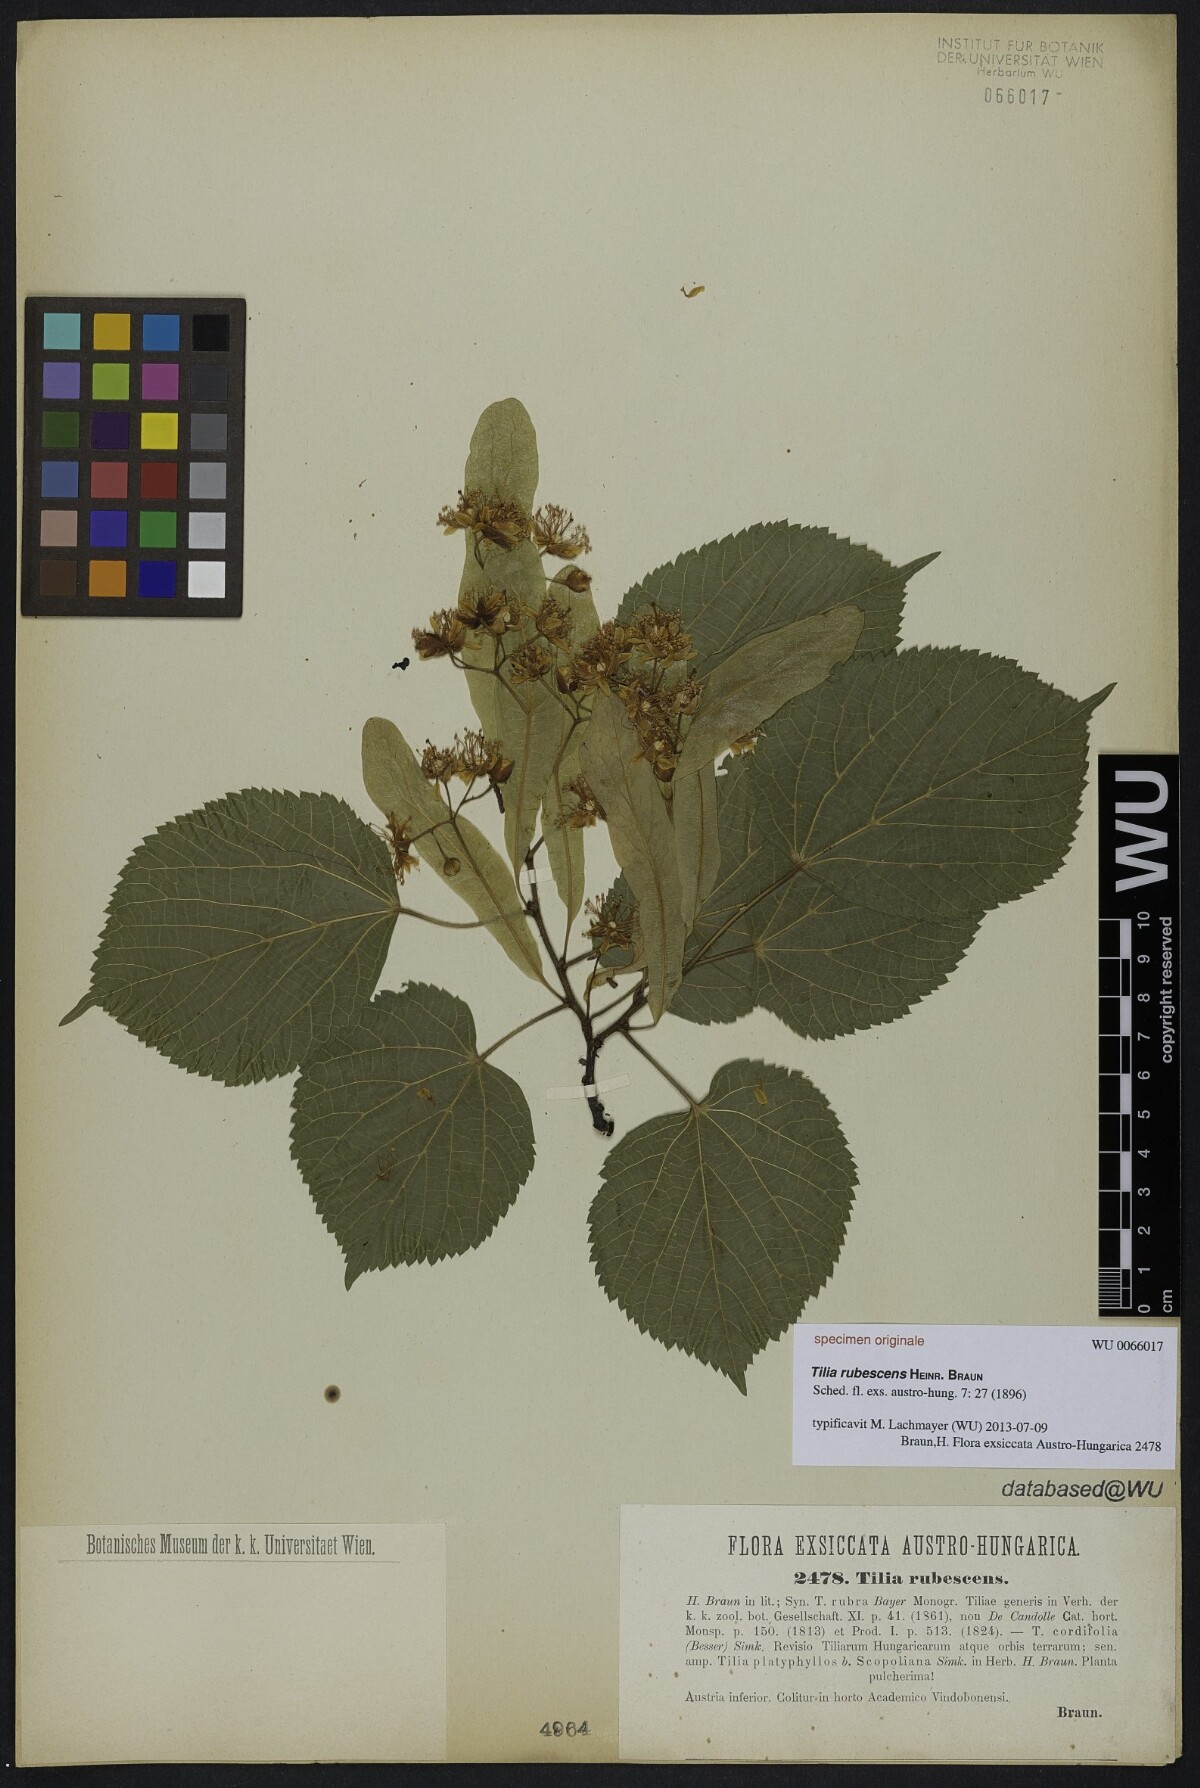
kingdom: Plantae
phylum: Tracheophyta
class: Magnoliopsida
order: Malvales
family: Malvaceae
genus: Tilia
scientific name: Tilia rubescens
